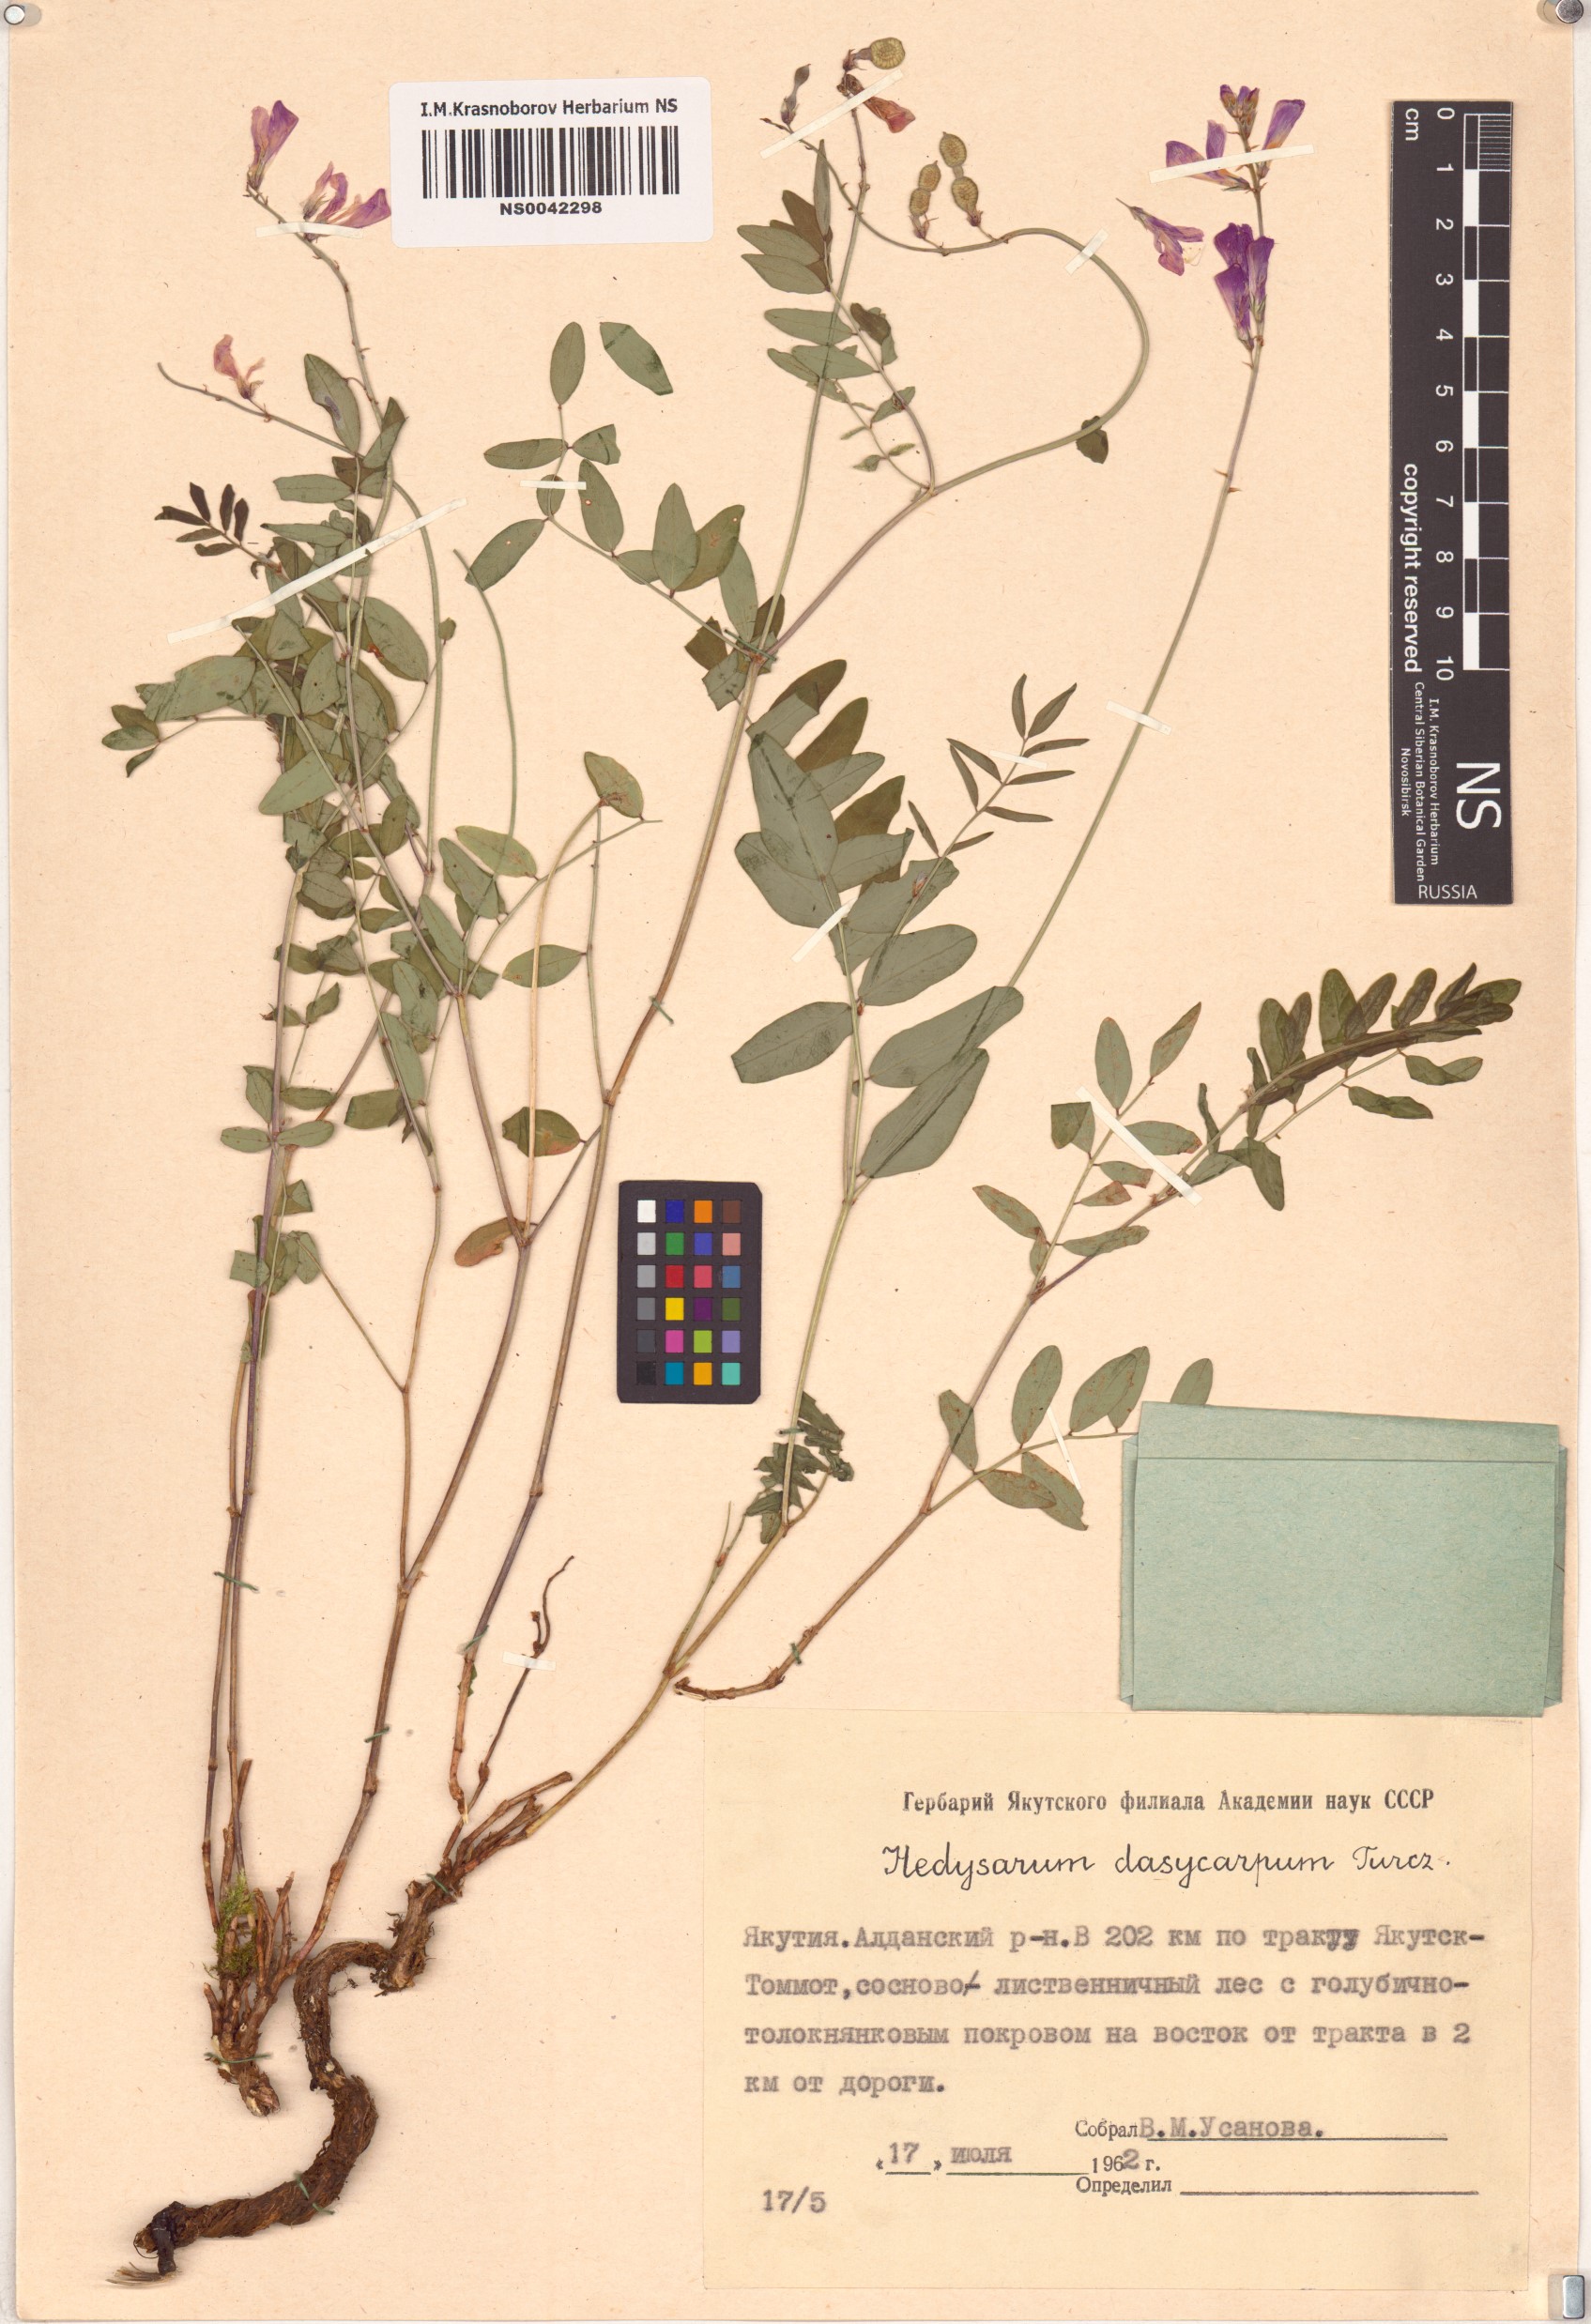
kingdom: Plantae
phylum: Tracheophyta
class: Magnoliopsida
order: Fabales
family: Fabaceae
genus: Hedysarum
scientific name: Hedysarum dasycarpum
